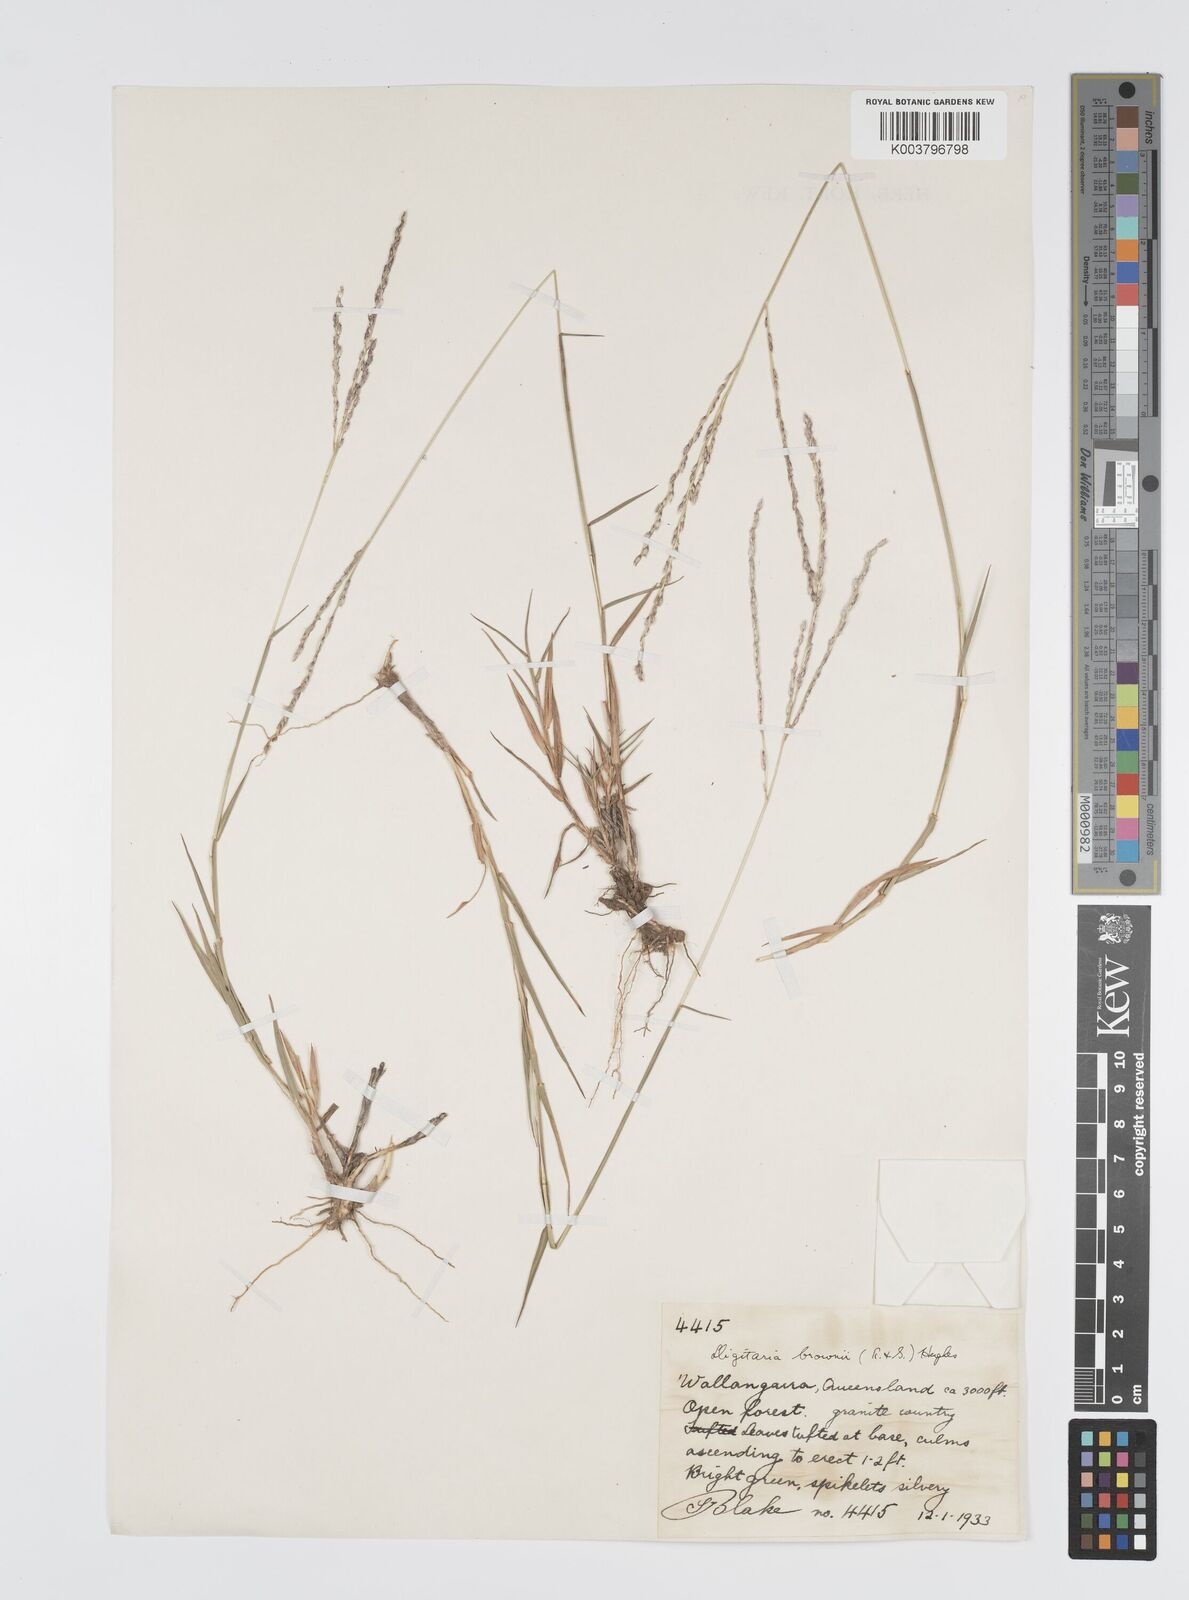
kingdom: Plantae
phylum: Tracheophyta
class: Liliopsida
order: Poales
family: Poaceae
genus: Digitaria
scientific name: Digitaria brownii
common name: Cotton grass
